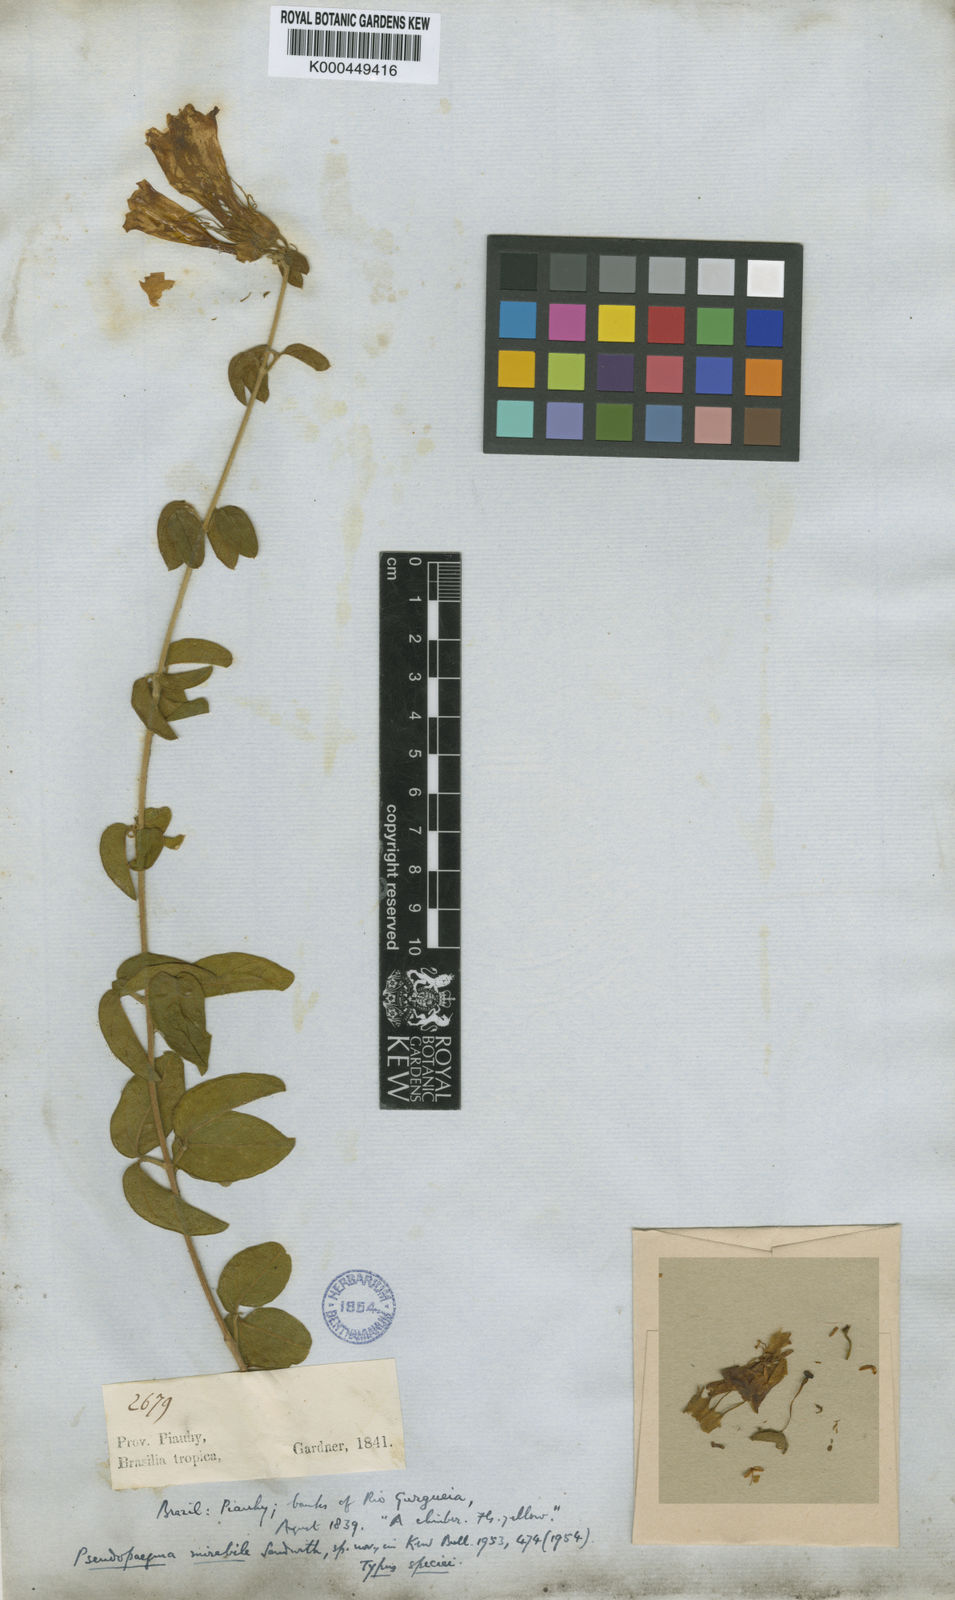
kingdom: Plantae
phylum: Tracheophyta
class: Magnoliopsida
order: Lamiales
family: Bignoniaceae
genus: Anemopaegma
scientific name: Anemopaegma mirabile
